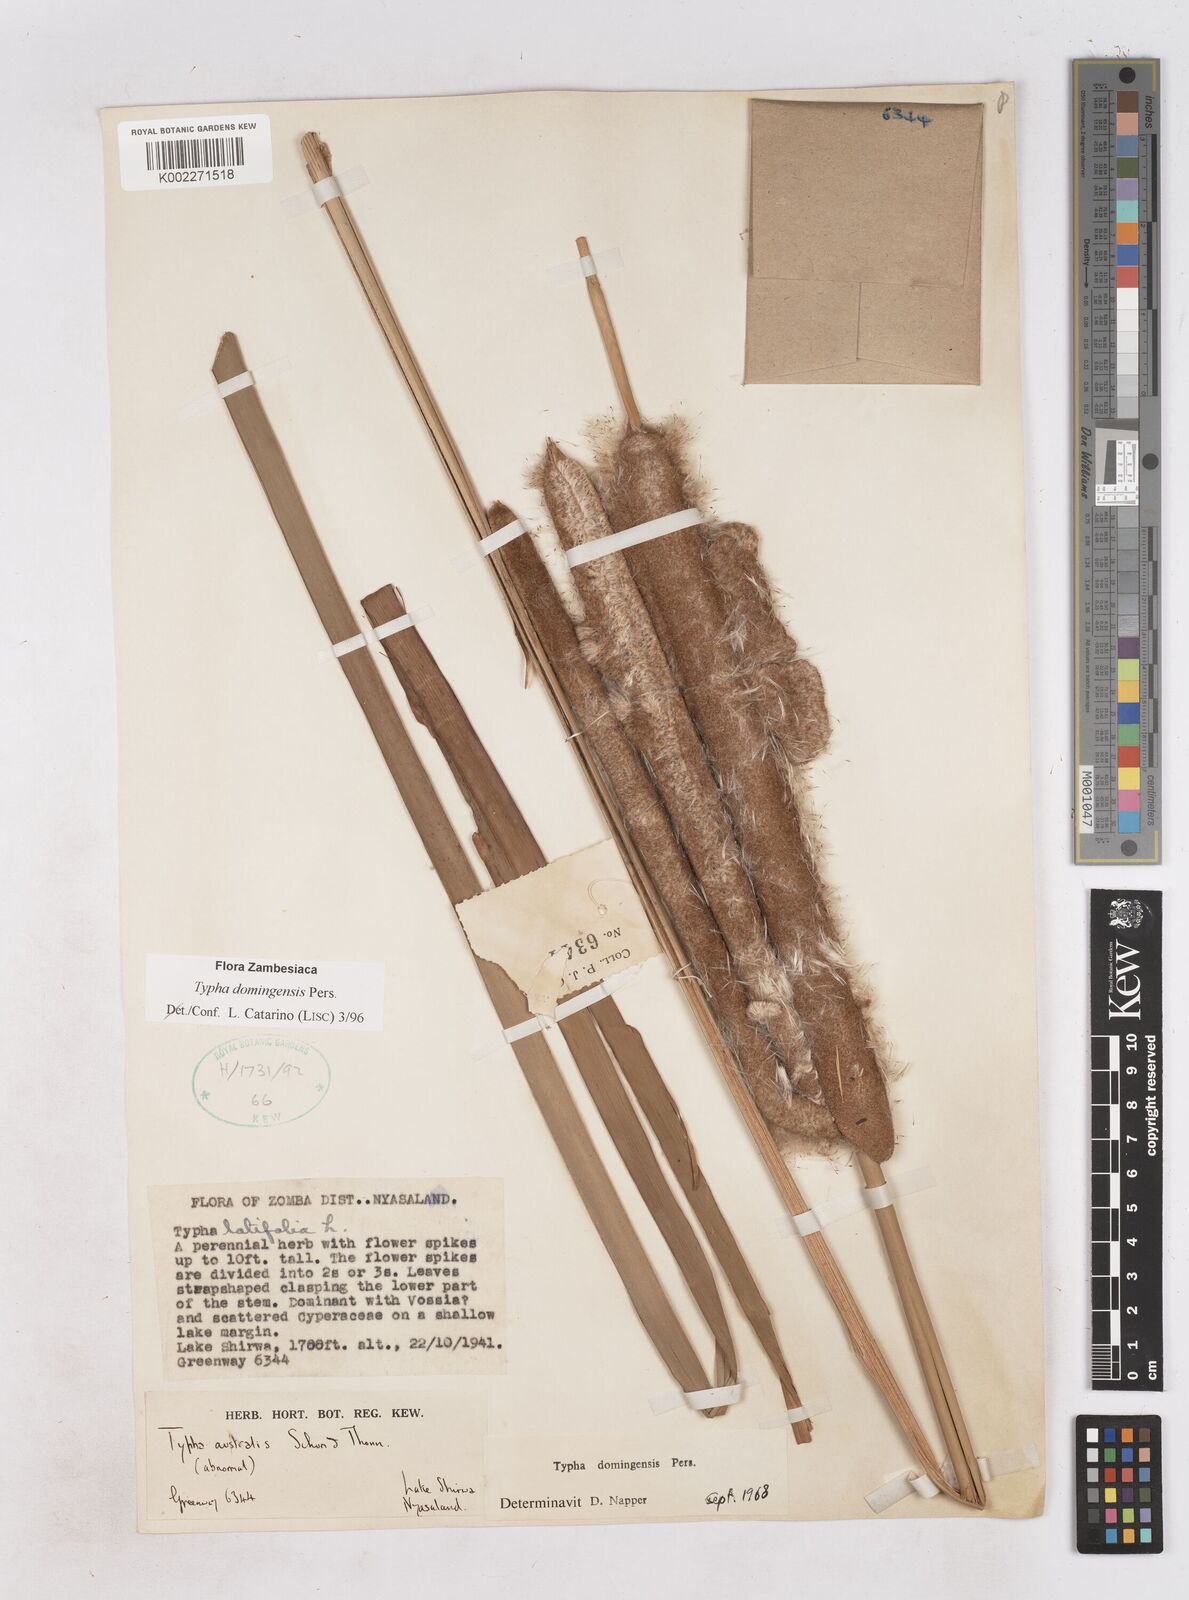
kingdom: Plantae
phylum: Tracheophyta
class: Liliopsida
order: Poales
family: Typhaceae
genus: Typha
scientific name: Typha domingensis
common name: Southern cattail
